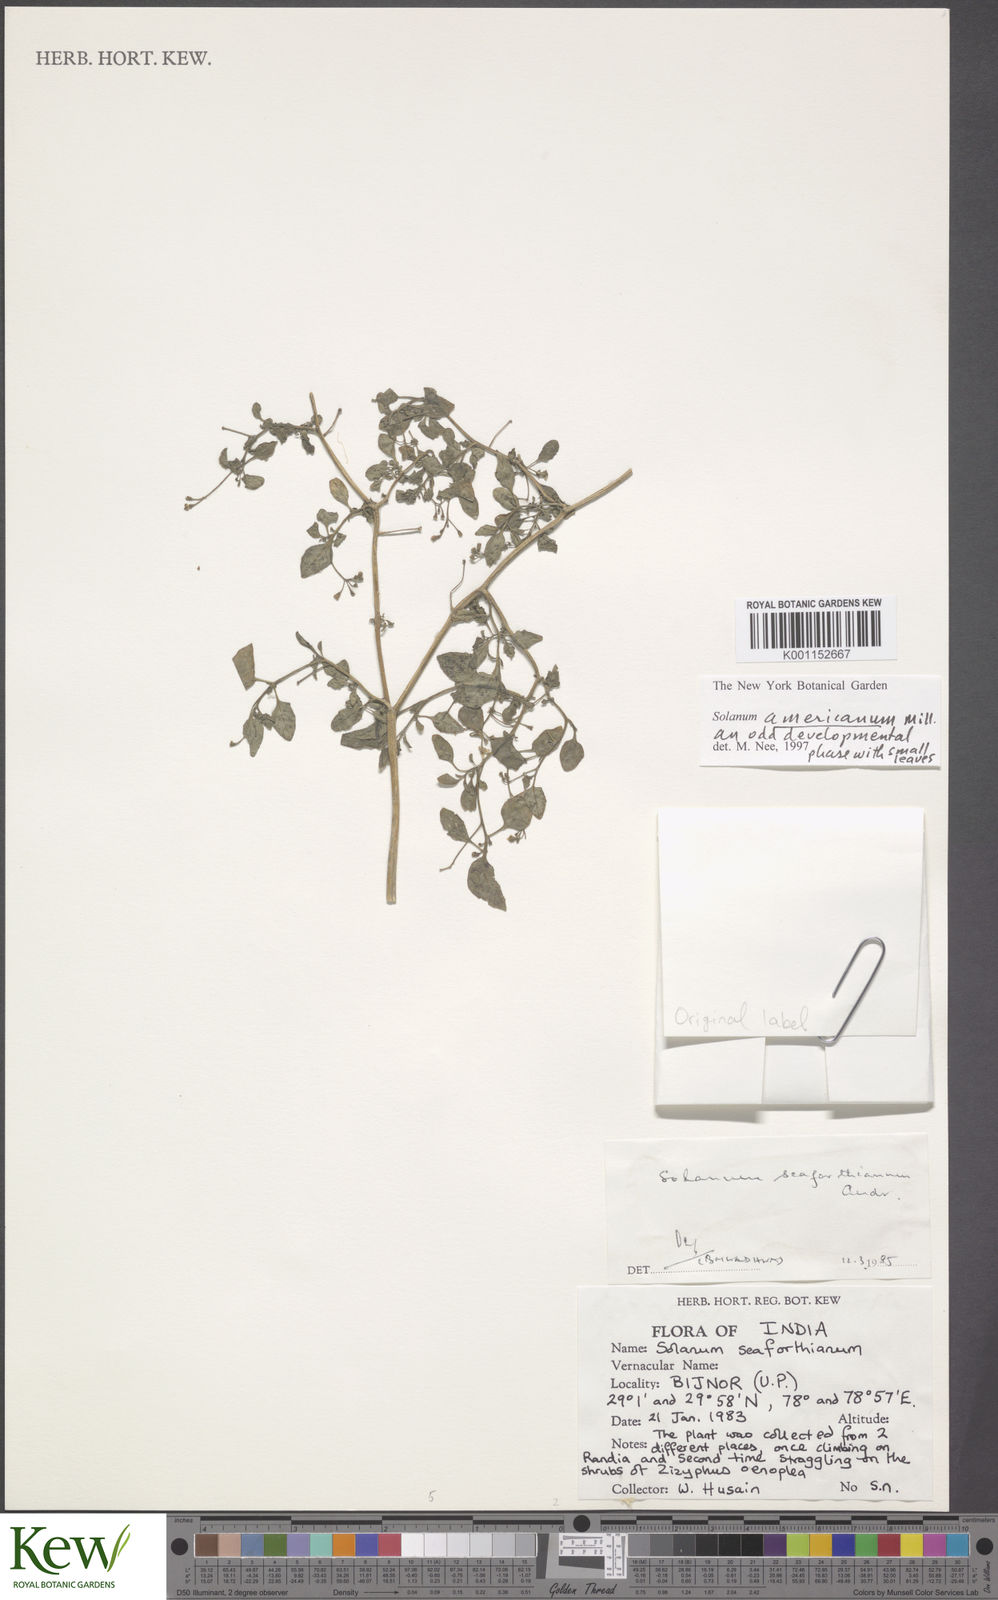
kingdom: Plantae
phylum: Tracheophyta
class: Magnoliopsida
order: Solanales
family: Solanaceae
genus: Solanum
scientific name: Solanum nigrum
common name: Black nightshade
